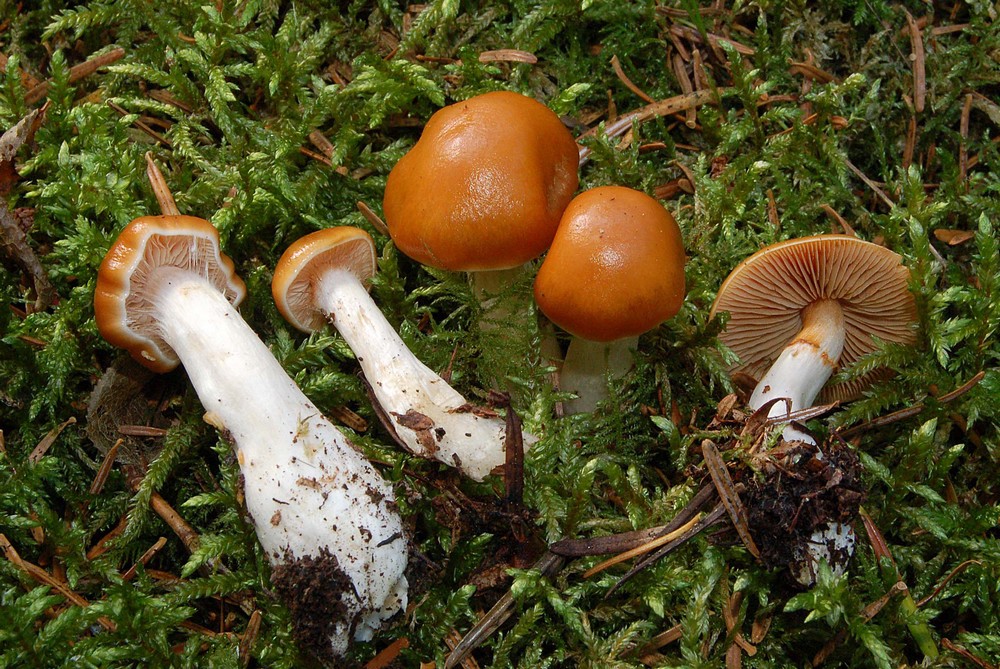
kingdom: Fungi
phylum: Basidiomycota
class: Agaricomycetes
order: Agaricales
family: Cortinariaceae
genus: Thaxterogaster
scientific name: Thaxterogaster
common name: bitter slørhat
